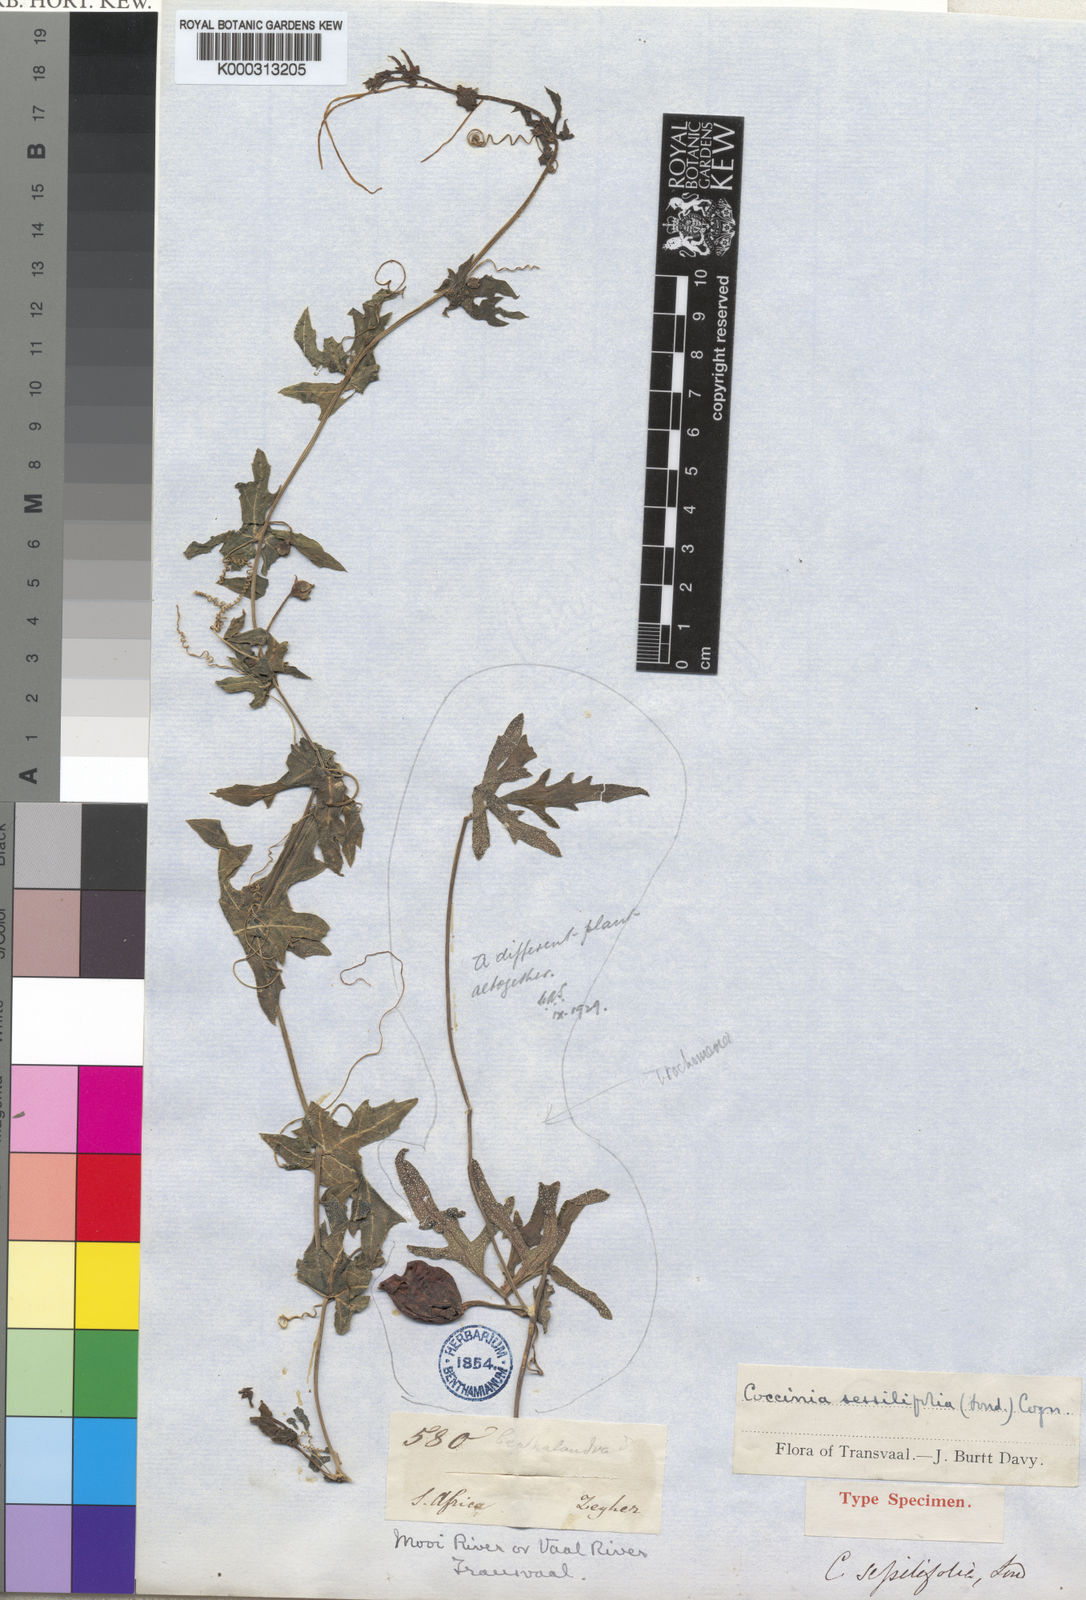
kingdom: Plantae
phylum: Tracheophyta
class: Magnoliopsida
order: Cucurbitales
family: Cucurbitaceae
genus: Coccinia
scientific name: Coccinia sessilifolia
